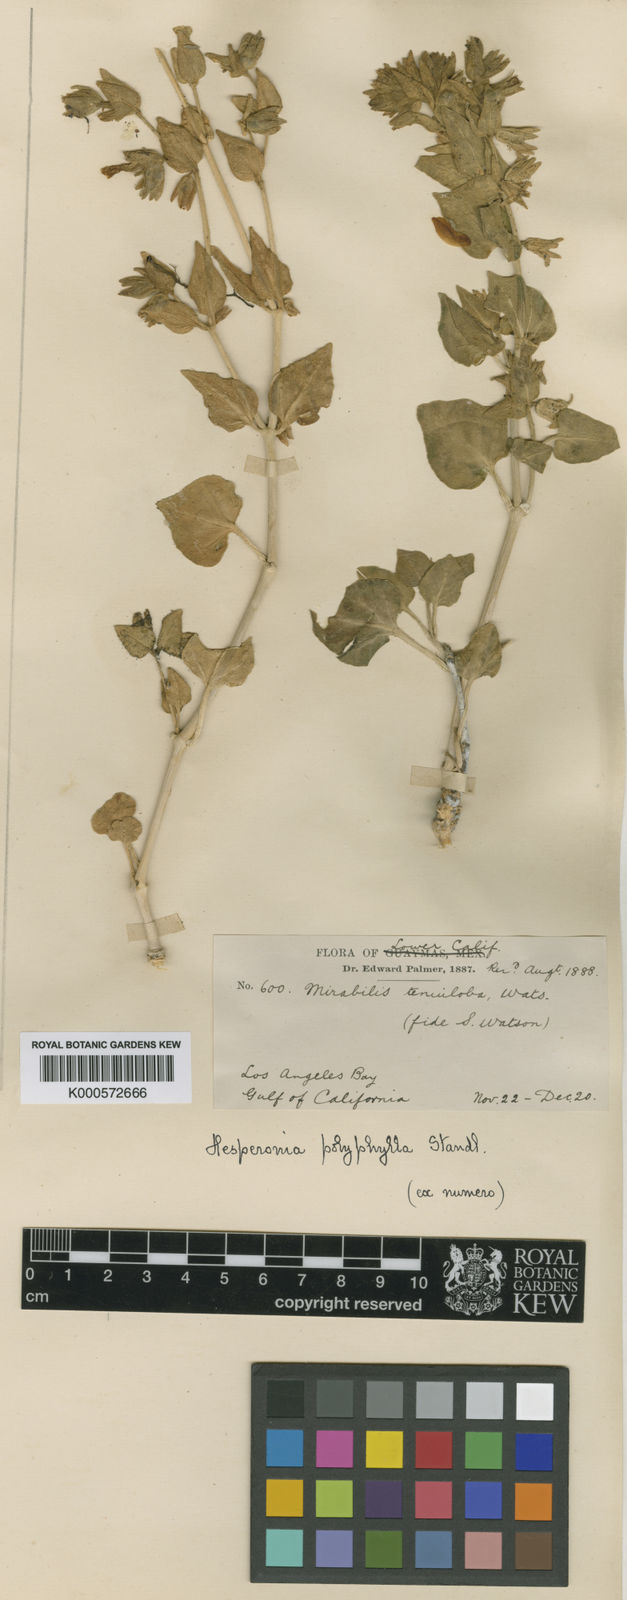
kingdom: Plantae
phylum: Tracheophyta
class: Magnoliopsida
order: Caryophyllales
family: Nyctaginaceae
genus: Mirabilis
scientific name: Mirabilis tenuiloba
